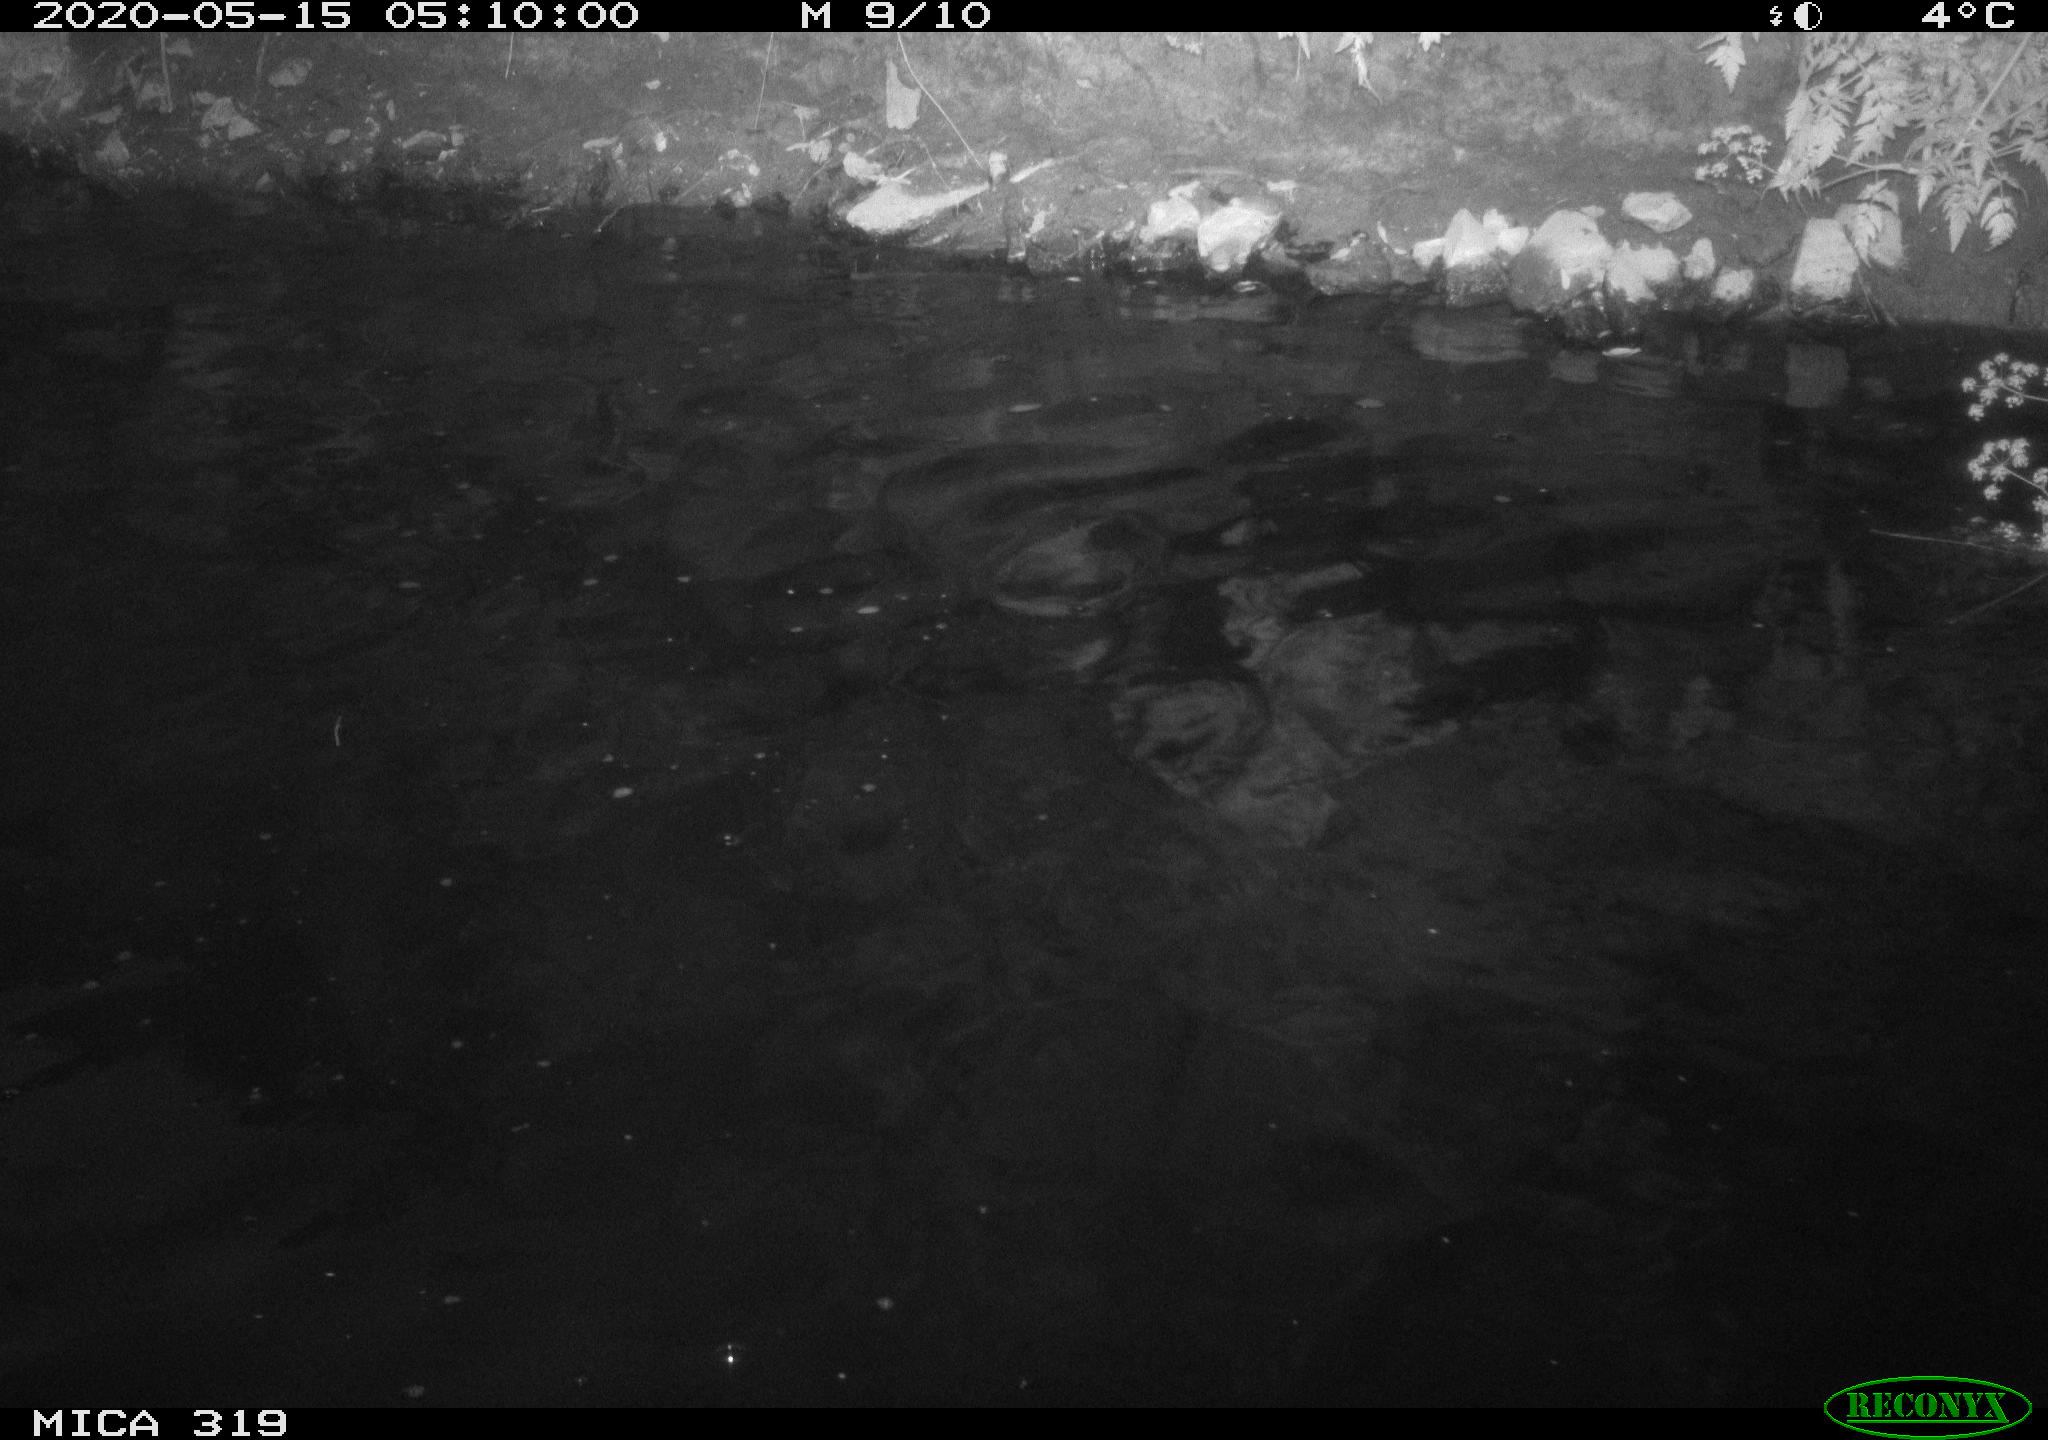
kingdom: Animalia
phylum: Chordata
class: Aves
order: Anseriformes
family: Anatidae
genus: Anas
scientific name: Anas platyrhynchos
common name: Mallard
